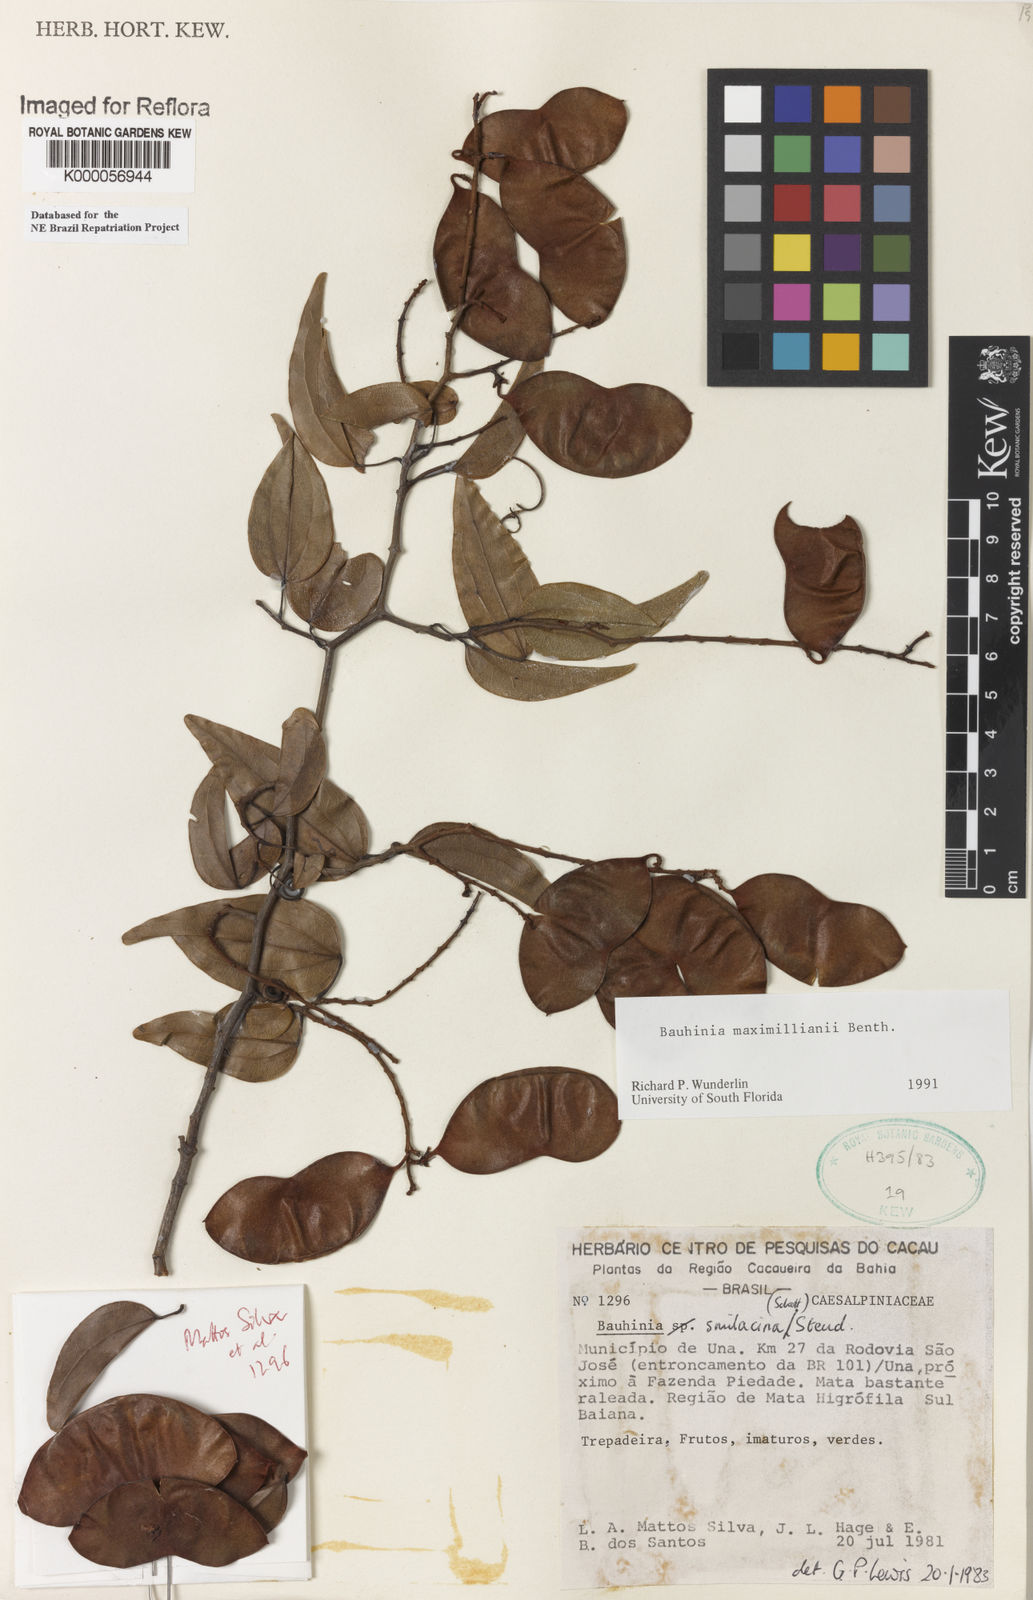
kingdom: Plantae
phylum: Tracheophyta
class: Magnoliopsida
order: Fabales
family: Fabaceae
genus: Schnella
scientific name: Schnella maximiliani
